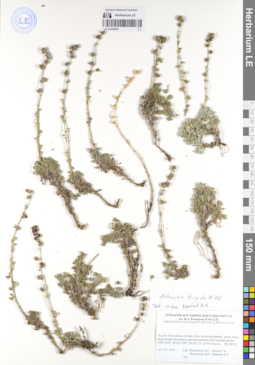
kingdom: Plantae
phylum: Tracheophyta
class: Magnoliopsida
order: Asterales
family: Asteraceae
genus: Artemisia
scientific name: Artemisia frigida
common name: Prairie sagewort
